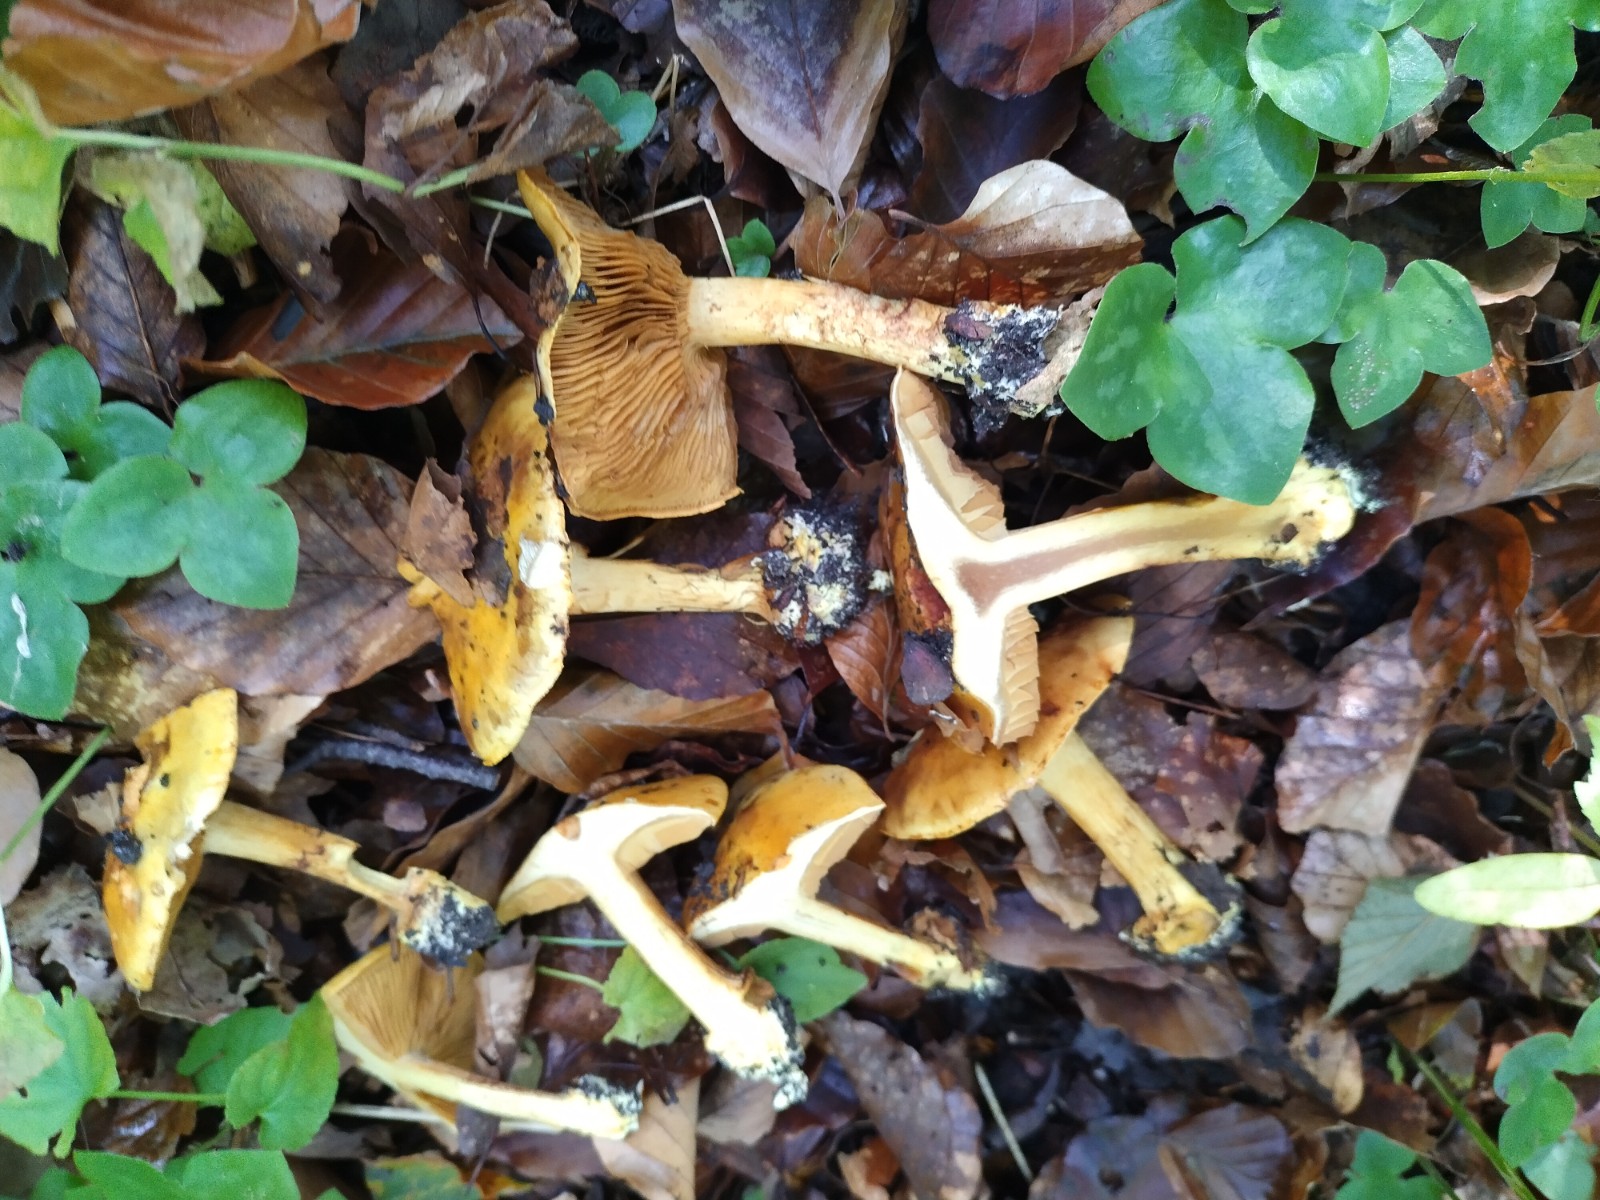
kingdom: Fungi
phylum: Basidiomycota
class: Agaricomycetes
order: Agaricales
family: Cortinariaceae
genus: Calonarius
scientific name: Calonarius alcalinophilus
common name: gyldenbrun slørhat
